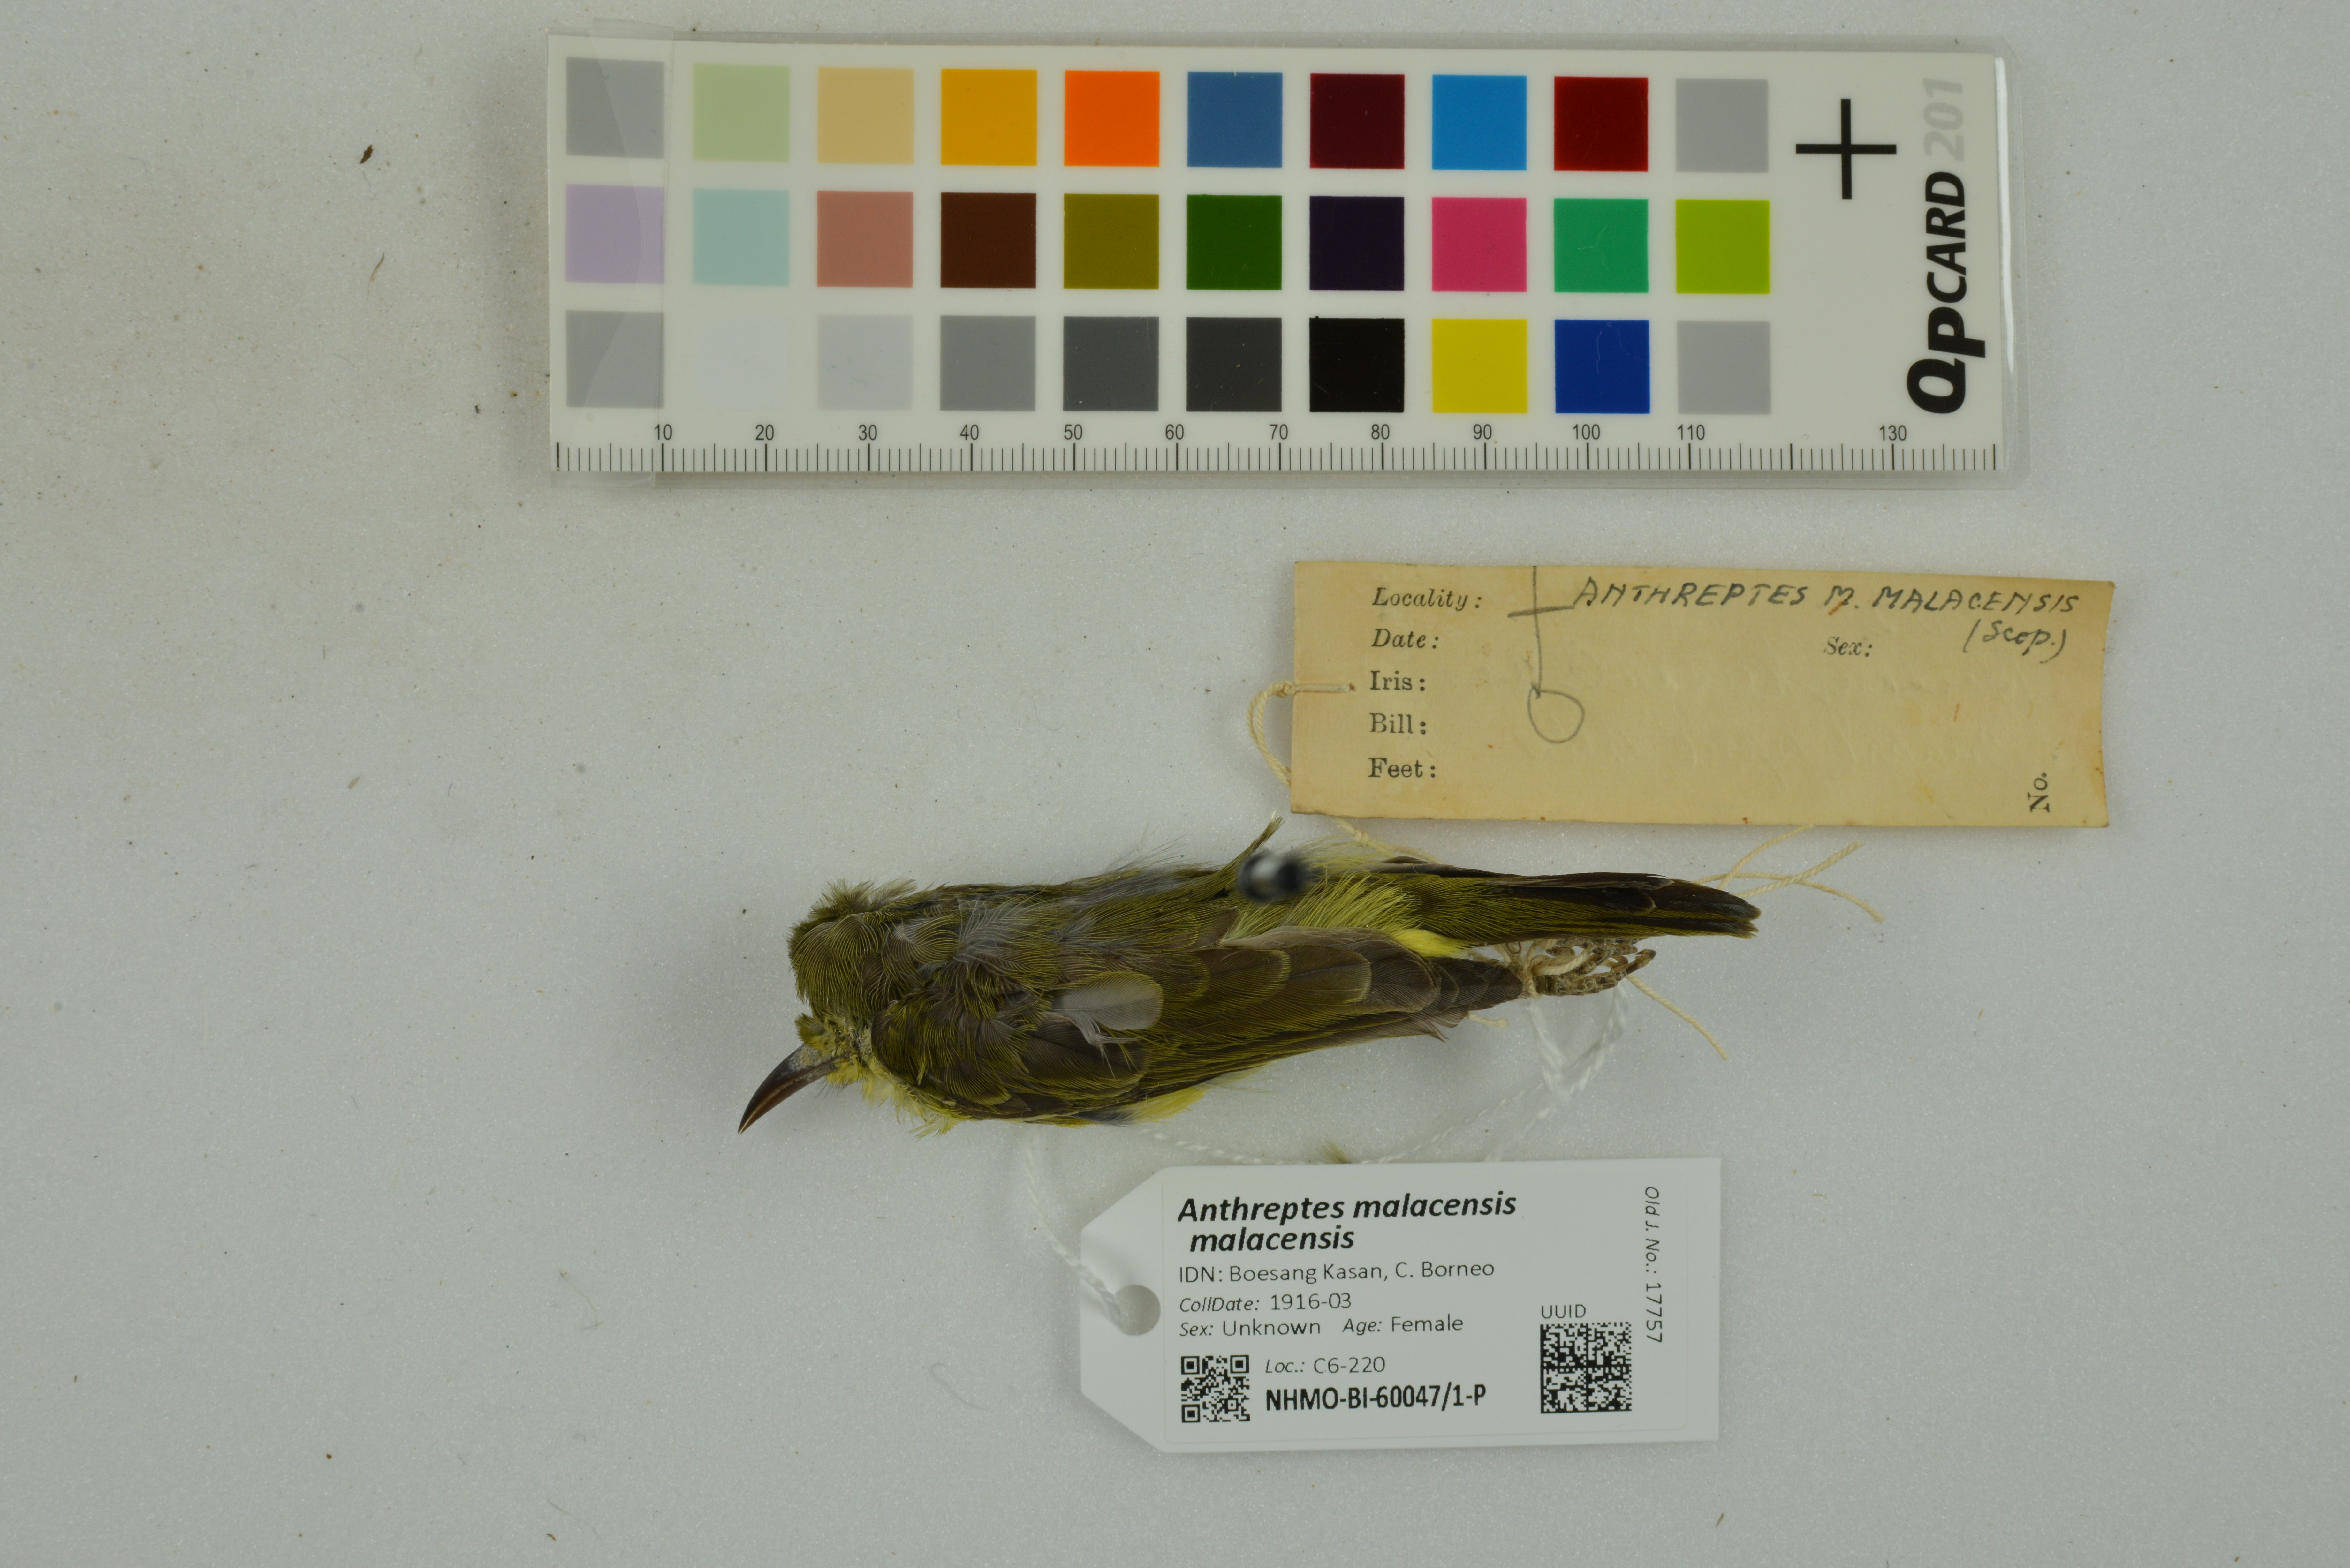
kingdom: Animalia
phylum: Chordata
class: Aves
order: Passeriformes
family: Nectariniidae
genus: Anthreptes
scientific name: Anthreptes malacensis
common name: Brown-throated sunbird
